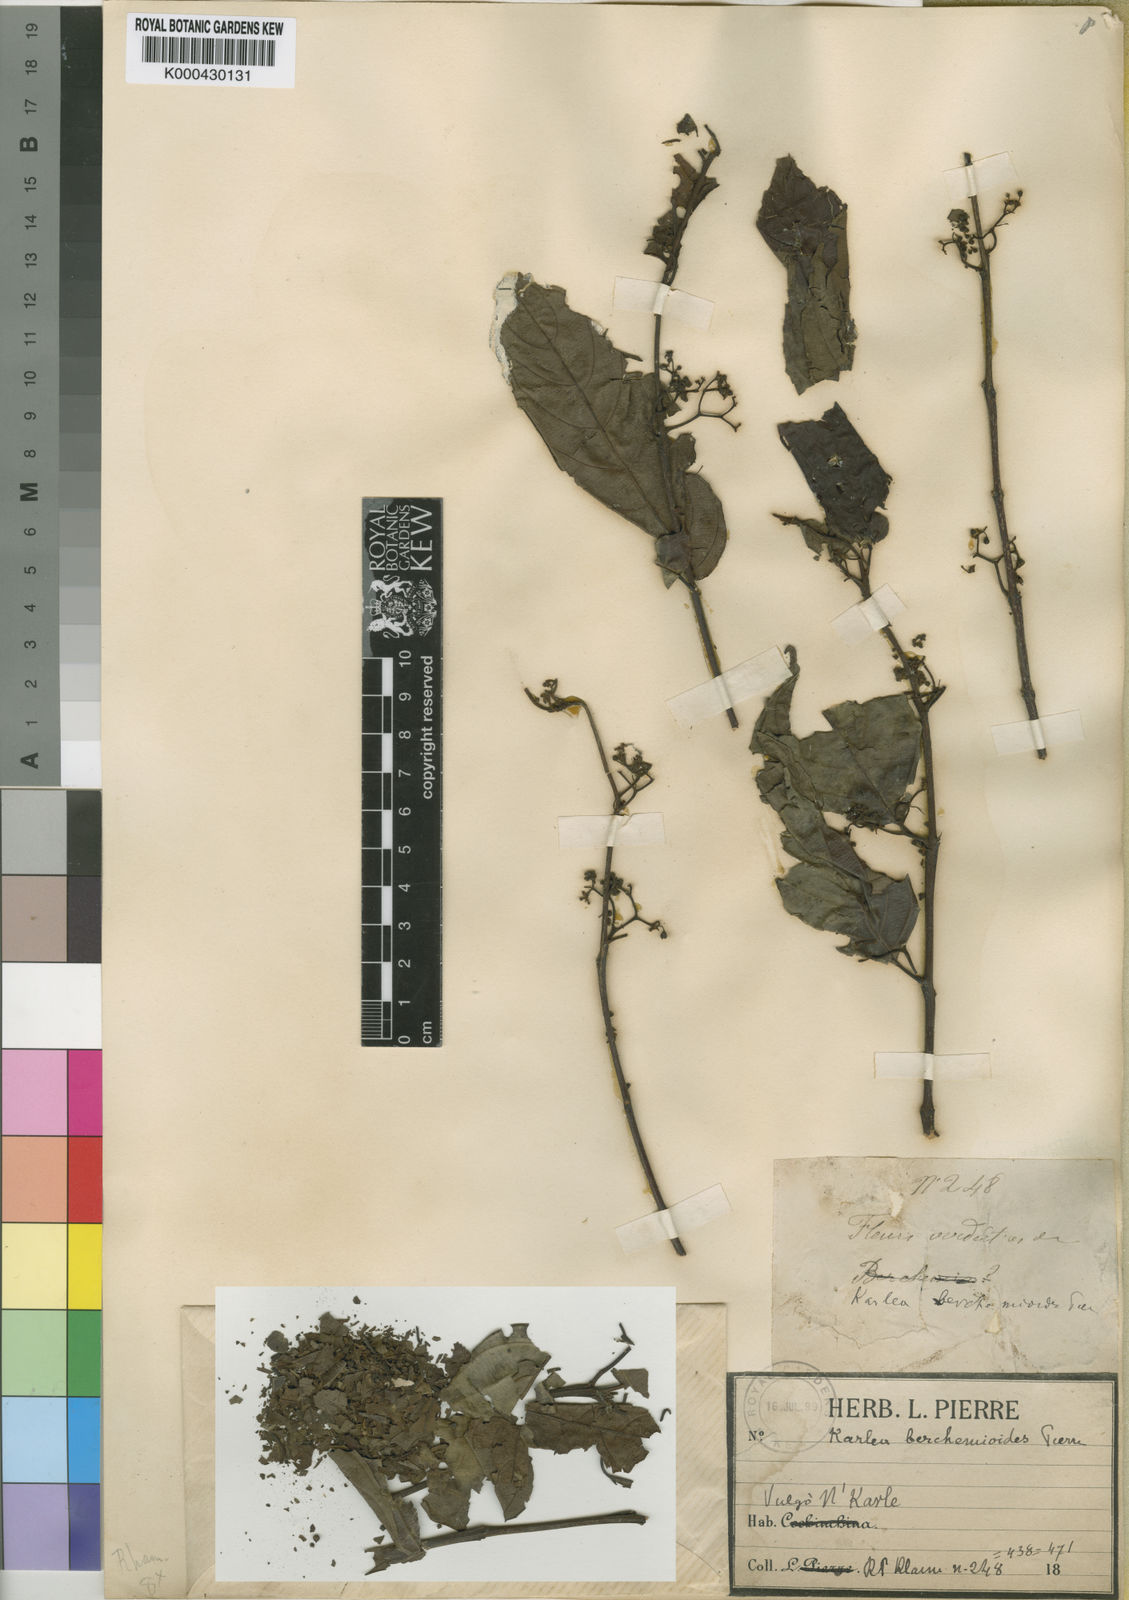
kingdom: Plantae
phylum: Tracheophyta
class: Magnoliopsida
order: Rosales
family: Rhamnaceae
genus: Maesopsis
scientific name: Maesopsis eminii
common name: Umbrella tree
